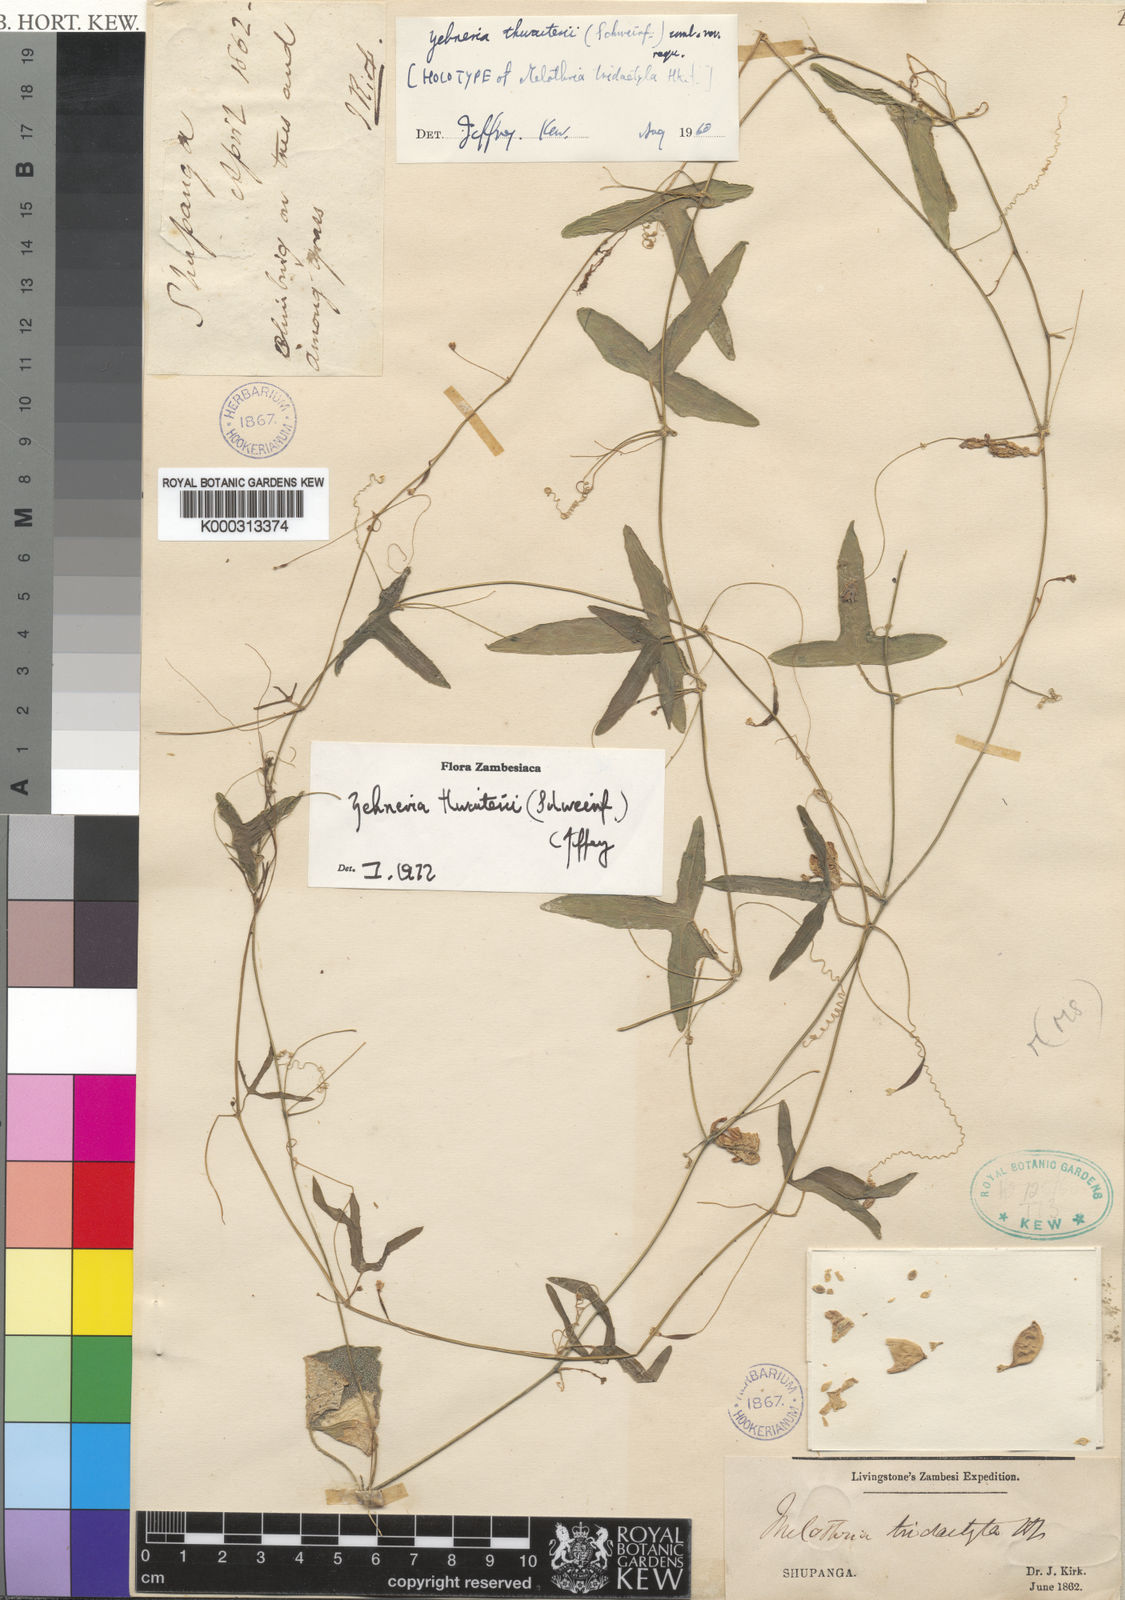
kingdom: Plantae
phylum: Tracheophyta
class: Magnoliopsida
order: Cucurbitales
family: Cucurbitaceae
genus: Zehneria
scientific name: Zehneria thwaitesii
